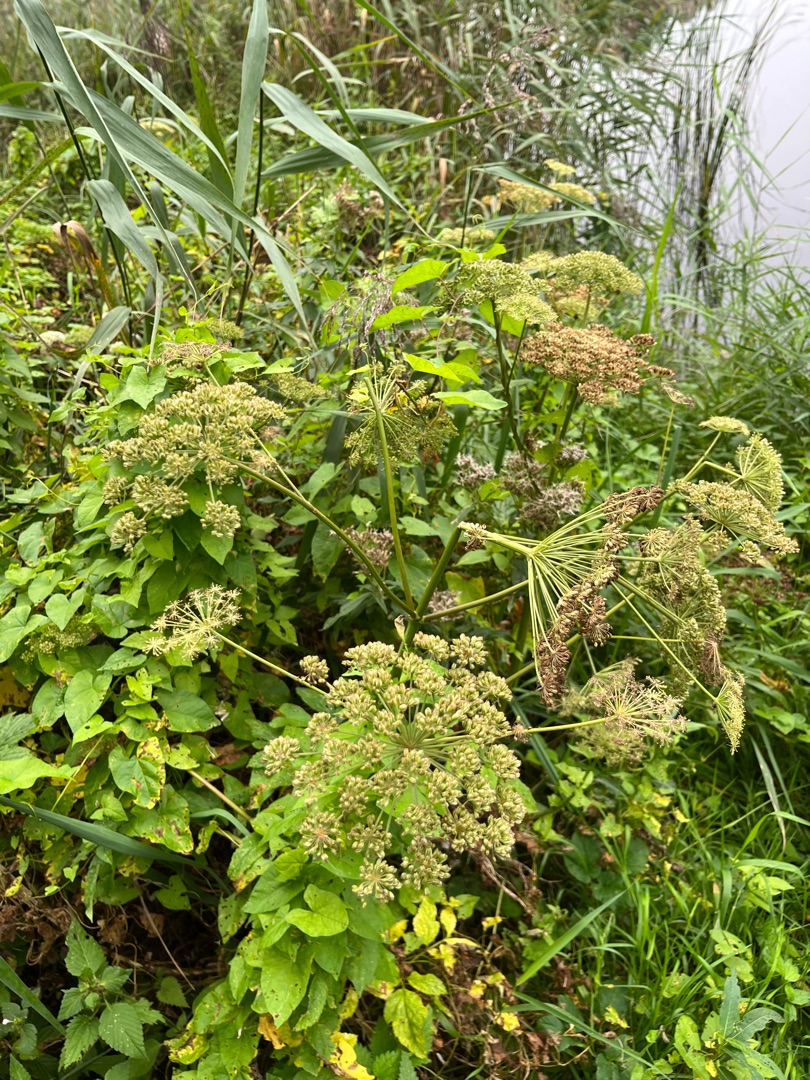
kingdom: Plantae
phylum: Tracheophyta
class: Magnoliopsida
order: Apiales
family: Apiaceae
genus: Angelica
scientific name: Angelica sylvestris
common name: Angelik
